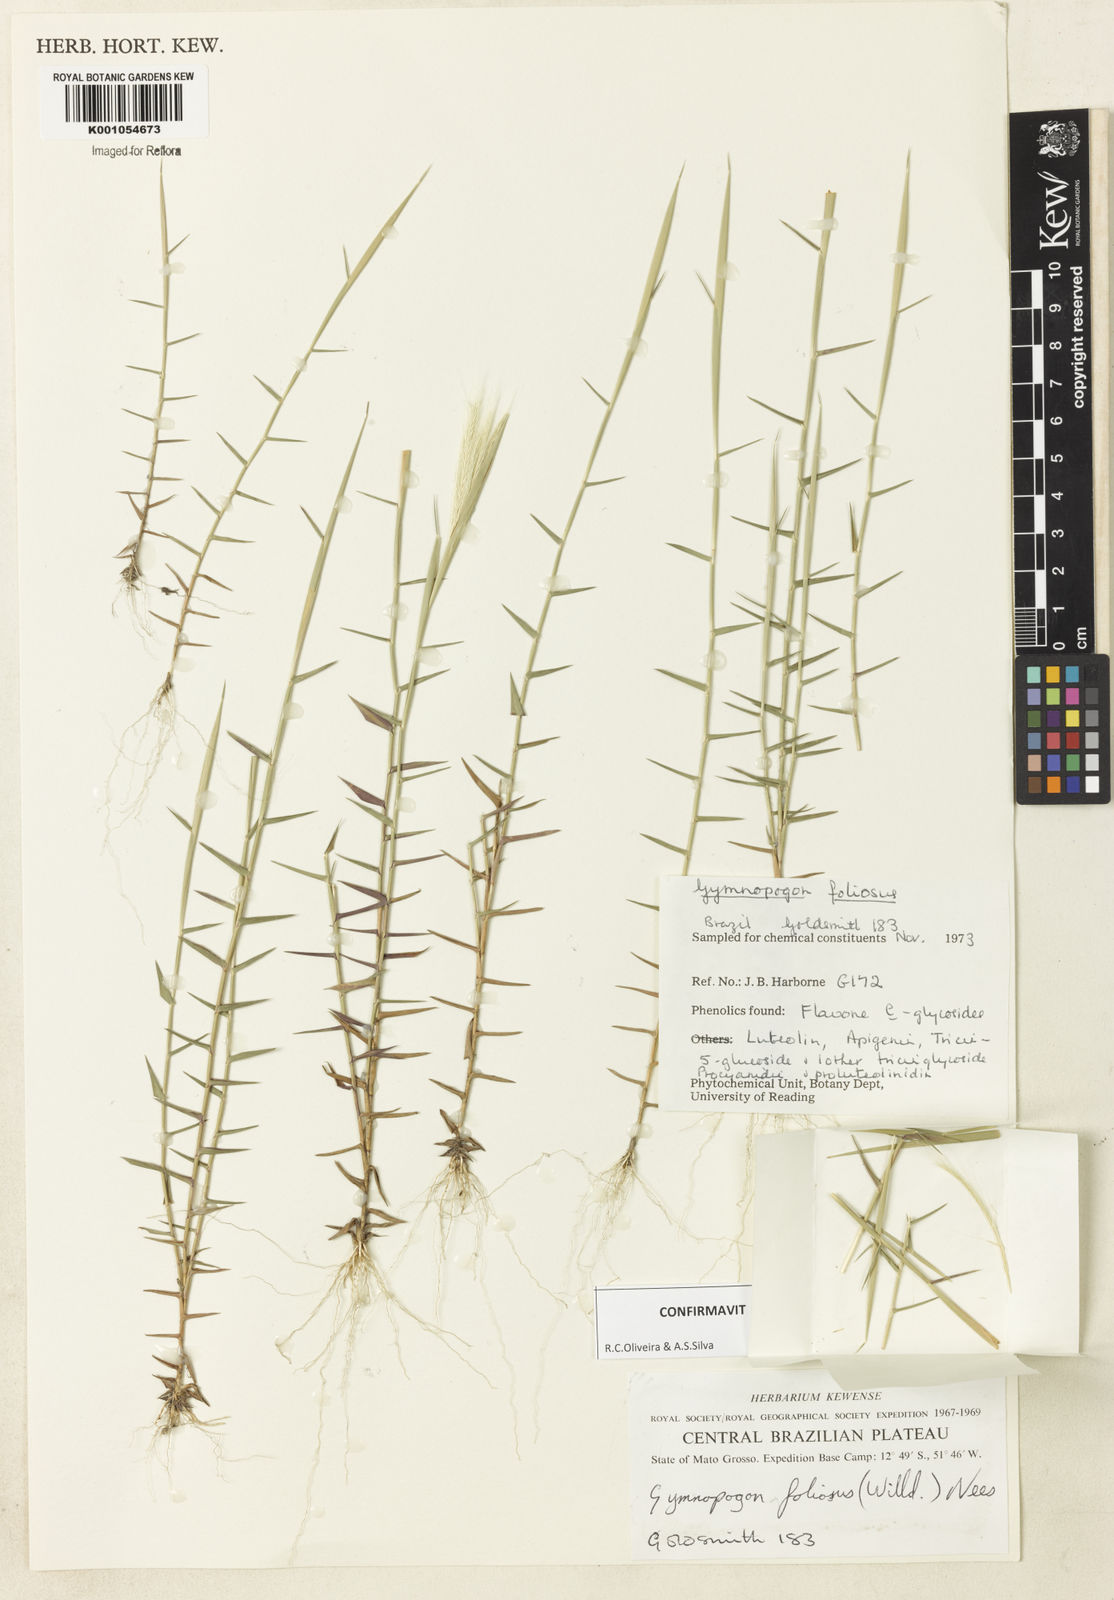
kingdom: Plantae
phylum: Tracheophyta
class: Liliopsida
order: Poales
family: Poaceae
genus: Gymnopogon
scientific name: Gymnopogon foliosus
